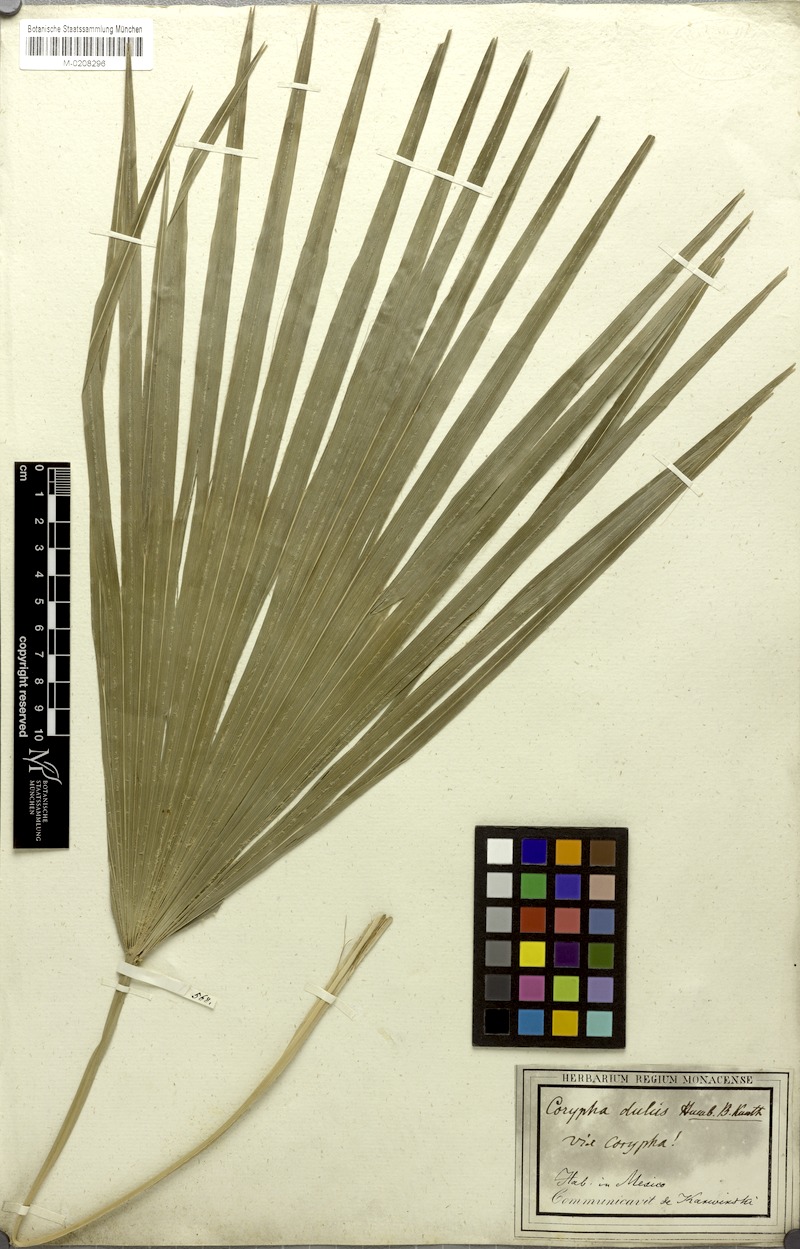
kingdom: Plantae
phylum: Tracheophyta
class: Liliopsida
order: Arecales
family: Arecaceae
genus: Brahea
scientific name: Brahea dulcis
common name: Apak palm
